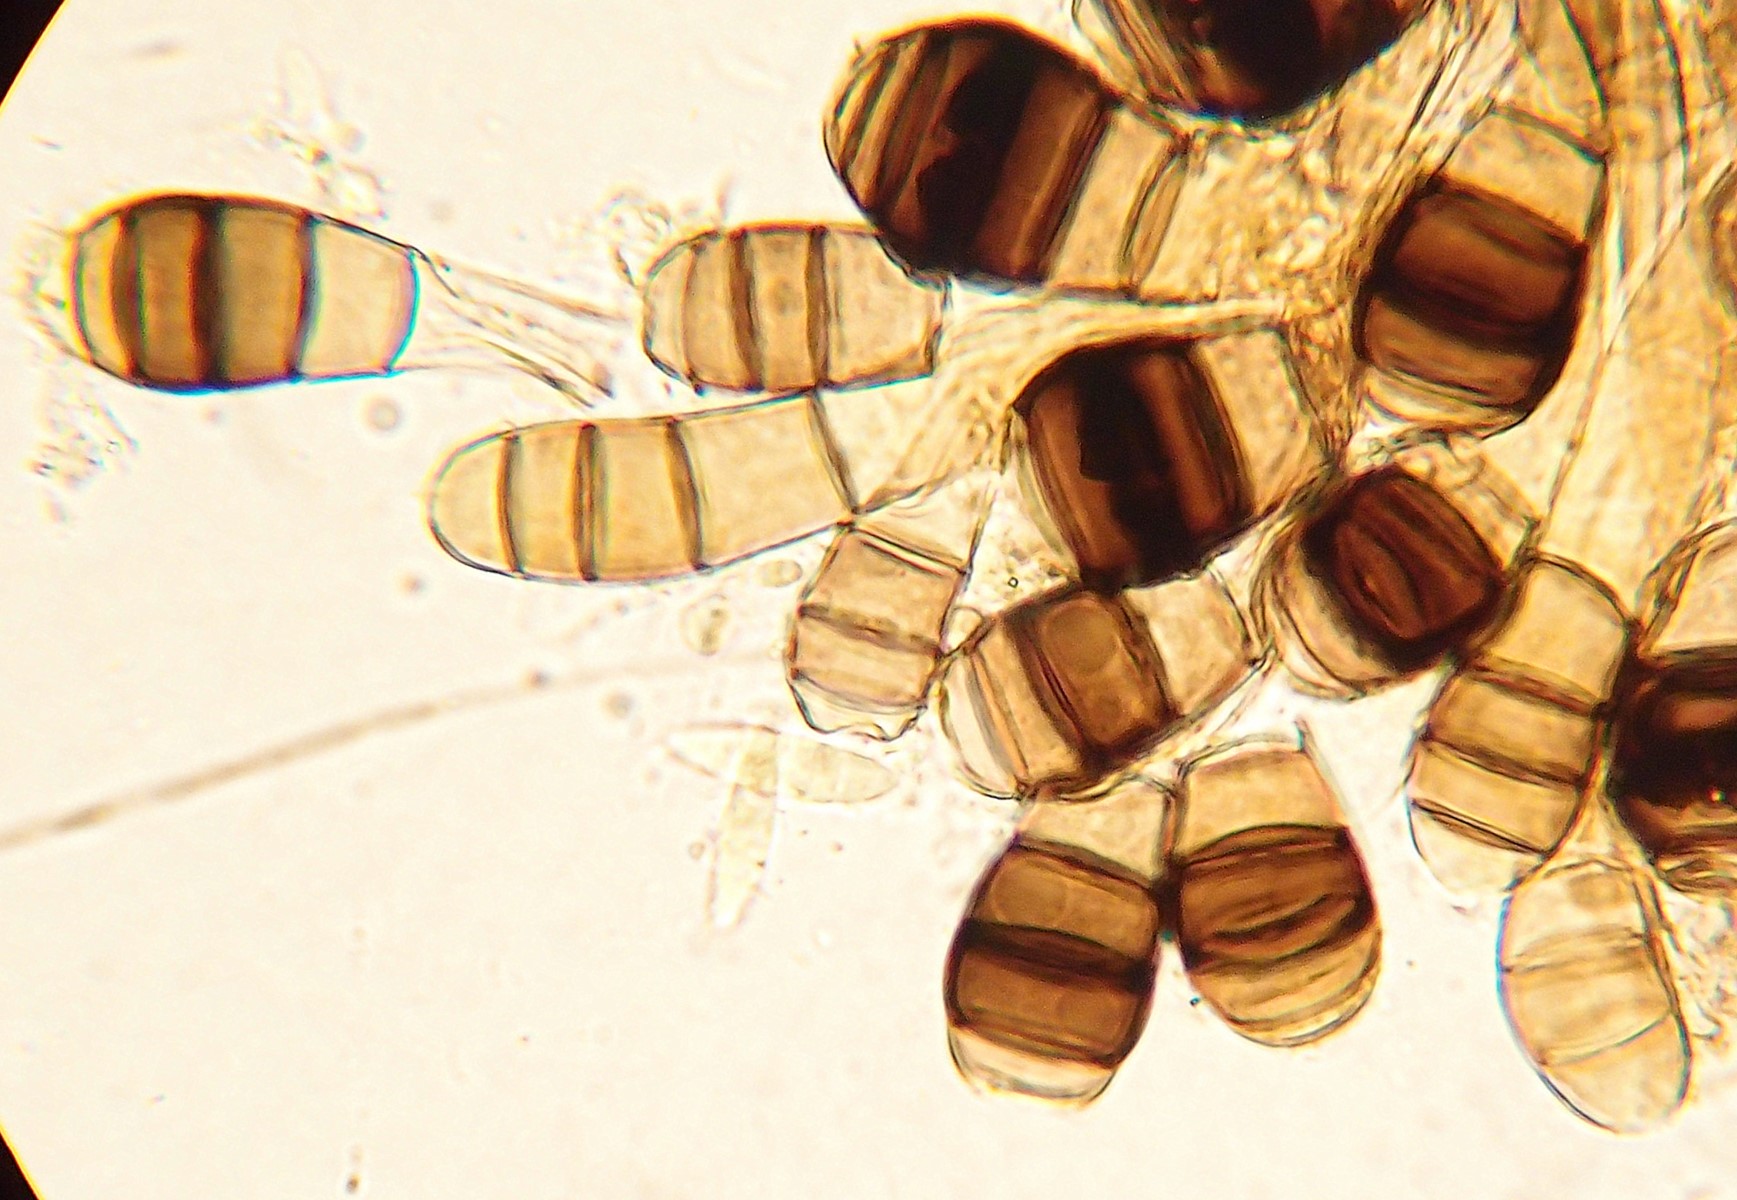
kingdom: Fungi
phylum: Ascomycota
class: Dothideomycetes
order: Pleosporales
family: Melanommataceae
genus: Phragmocephala
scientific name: Phragmocephala atra
